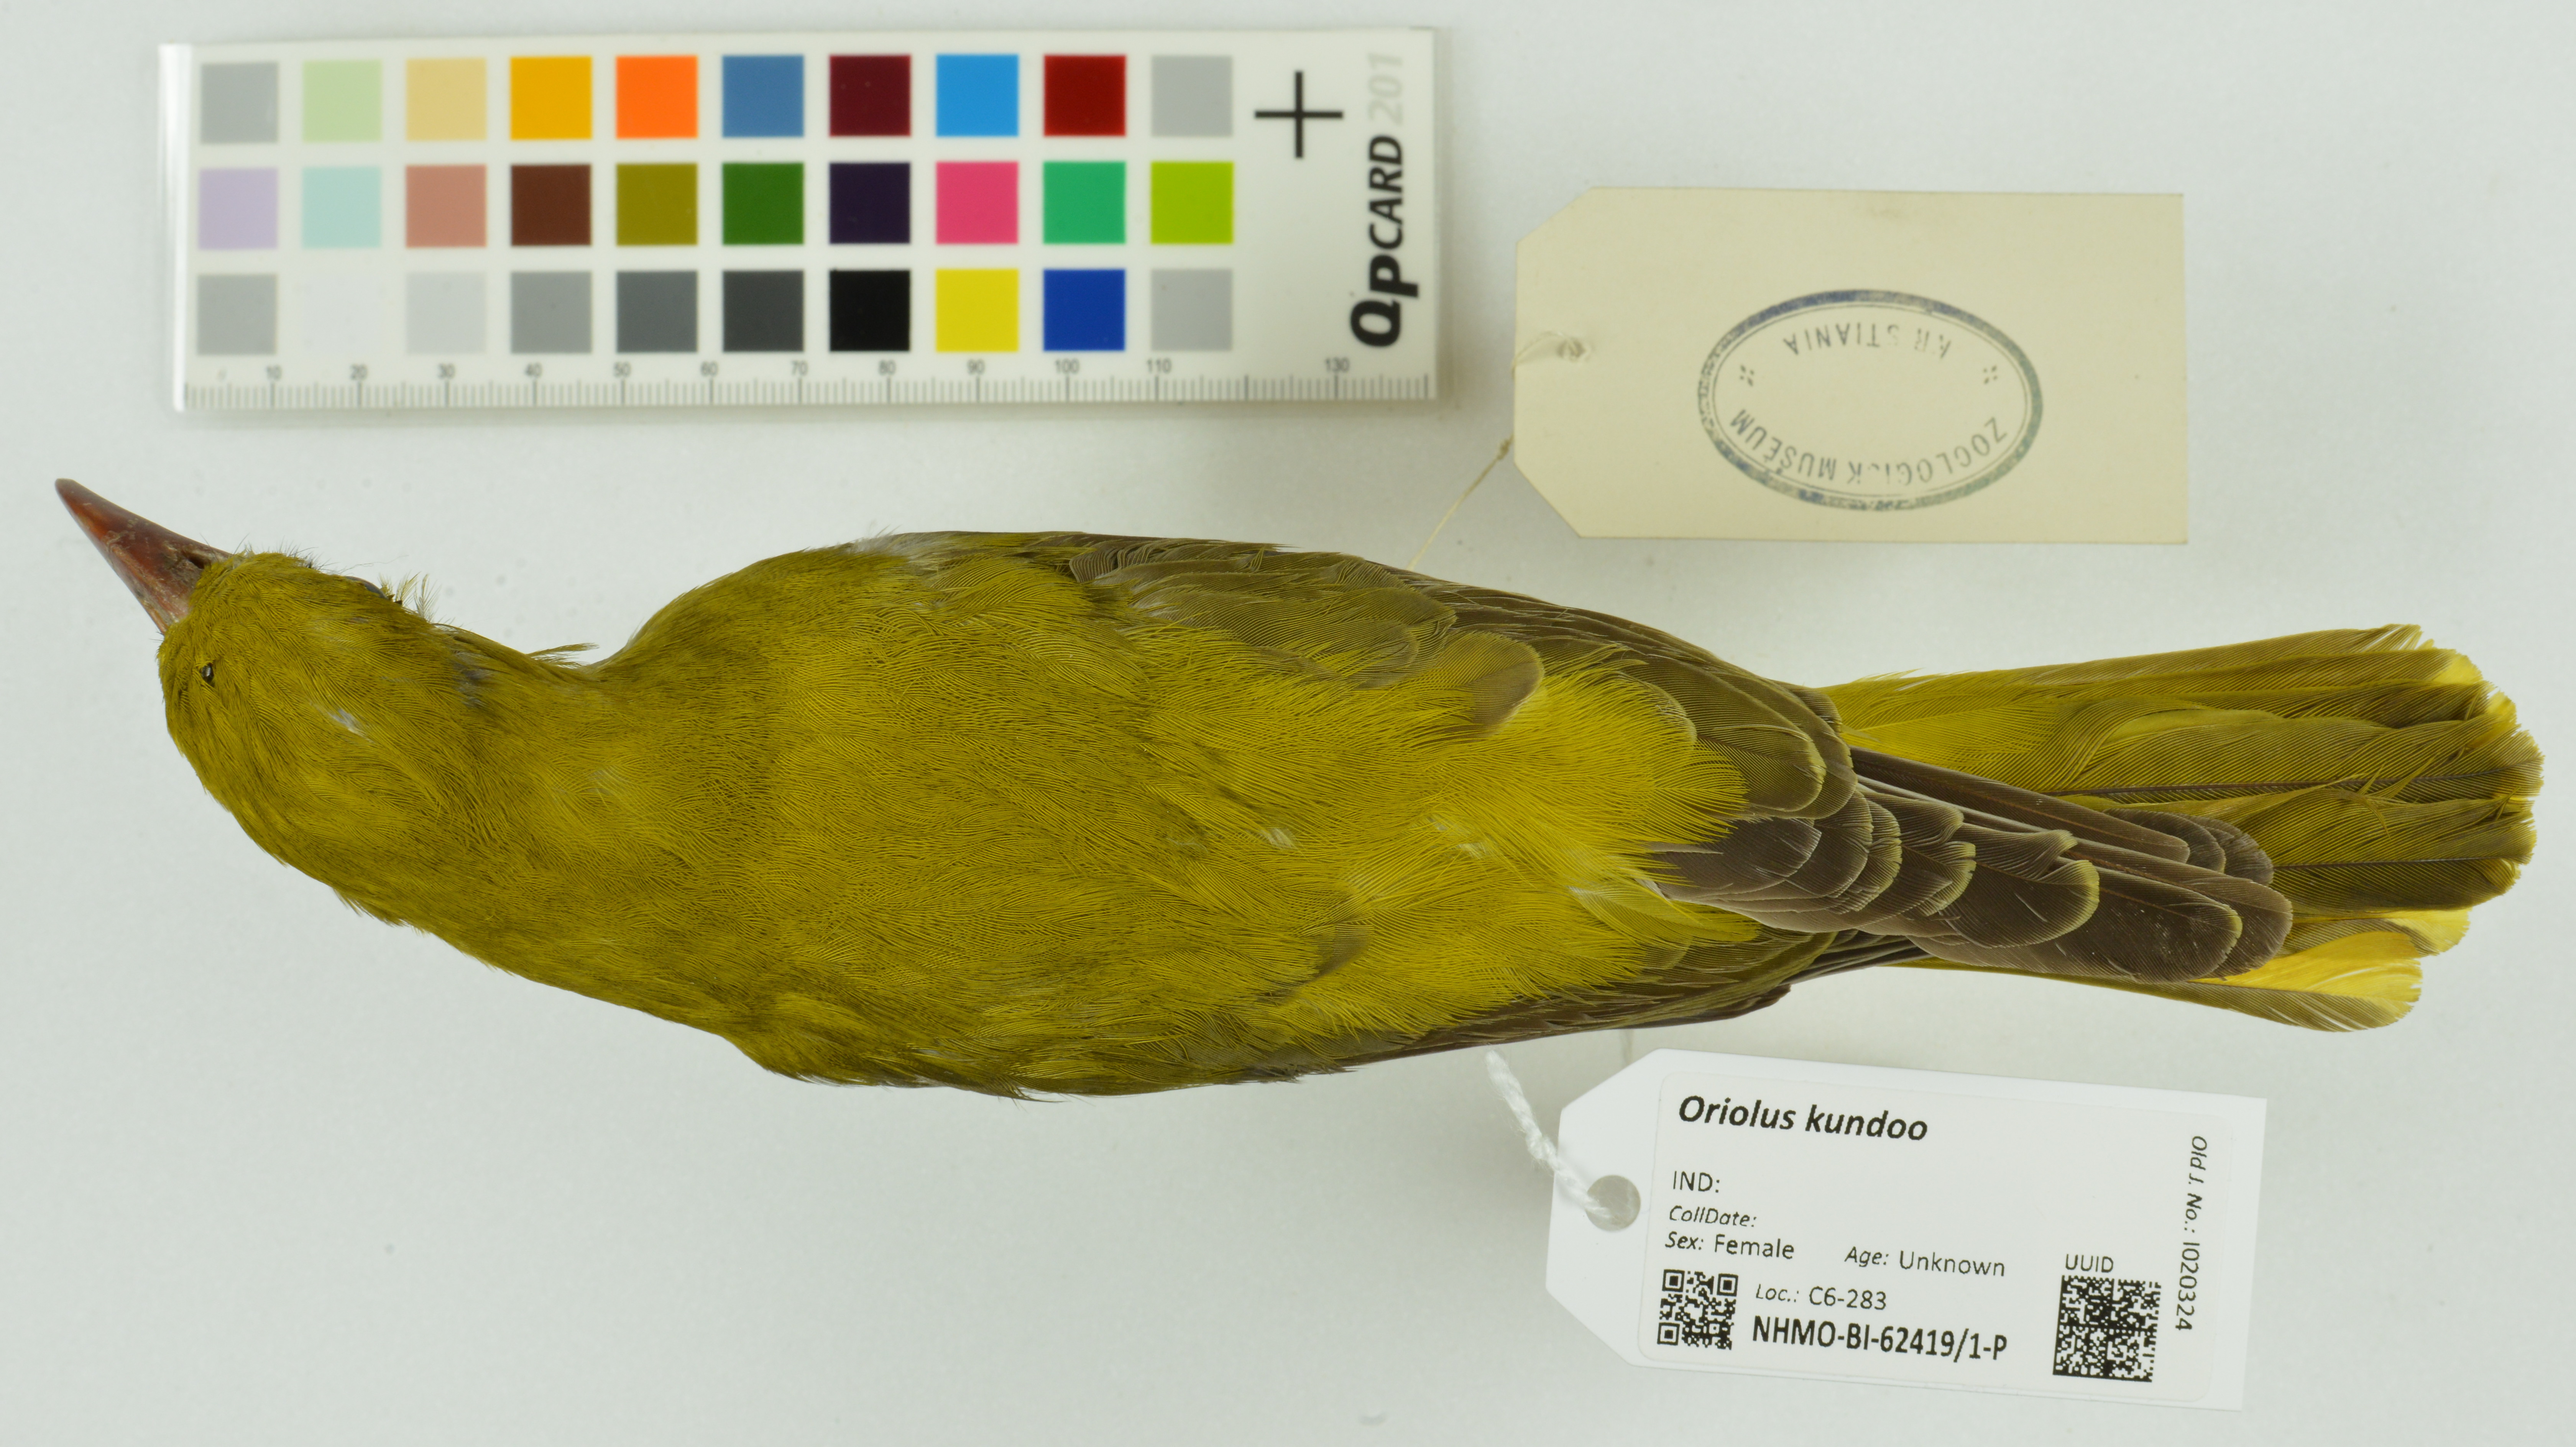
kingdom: Animalia
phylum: Chordata
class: Aves
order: Passeriformes
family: Oriolidae
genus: Oriolus
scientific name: Oriolus kundoo
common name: Indian golden oriole
